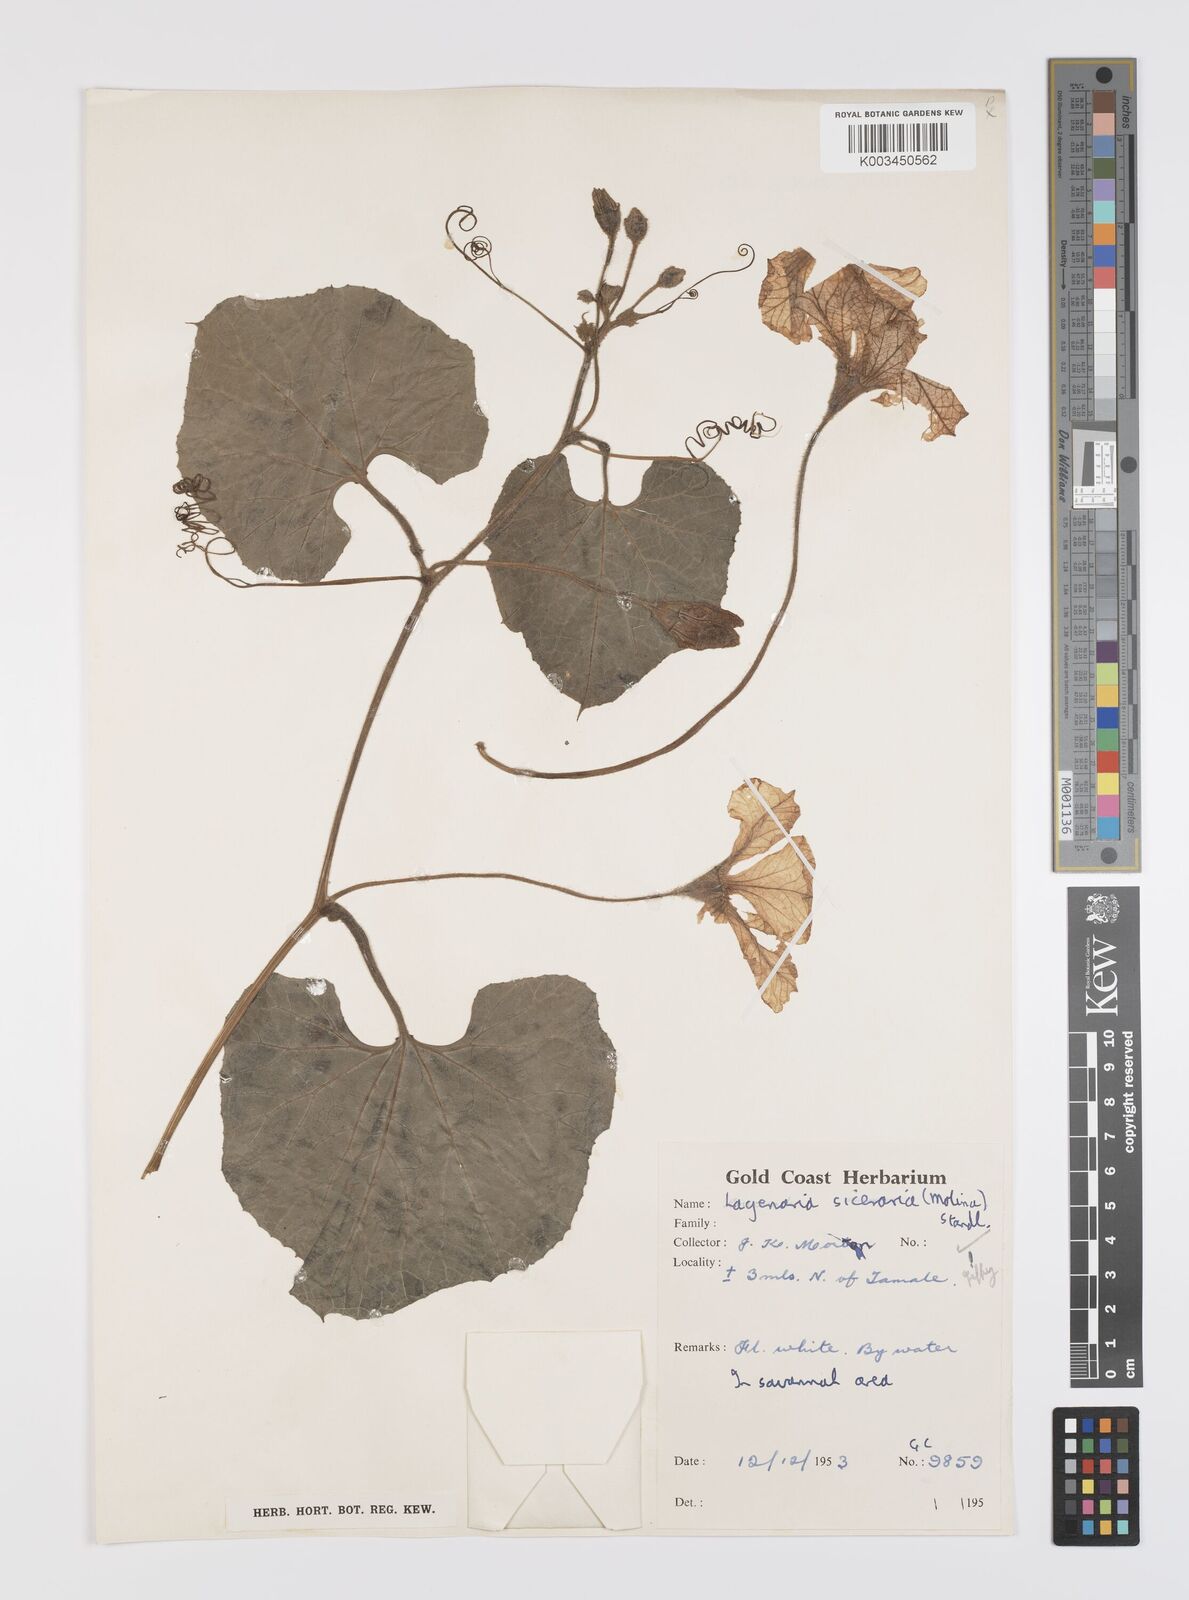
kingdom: Plantae
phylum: Tracheophyta
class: Magnoliopsida
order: Cucurbitales
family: Cucurbitaceae
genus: Lagenaria
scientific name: Lagenaria siceraria
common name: Bottle gourd
